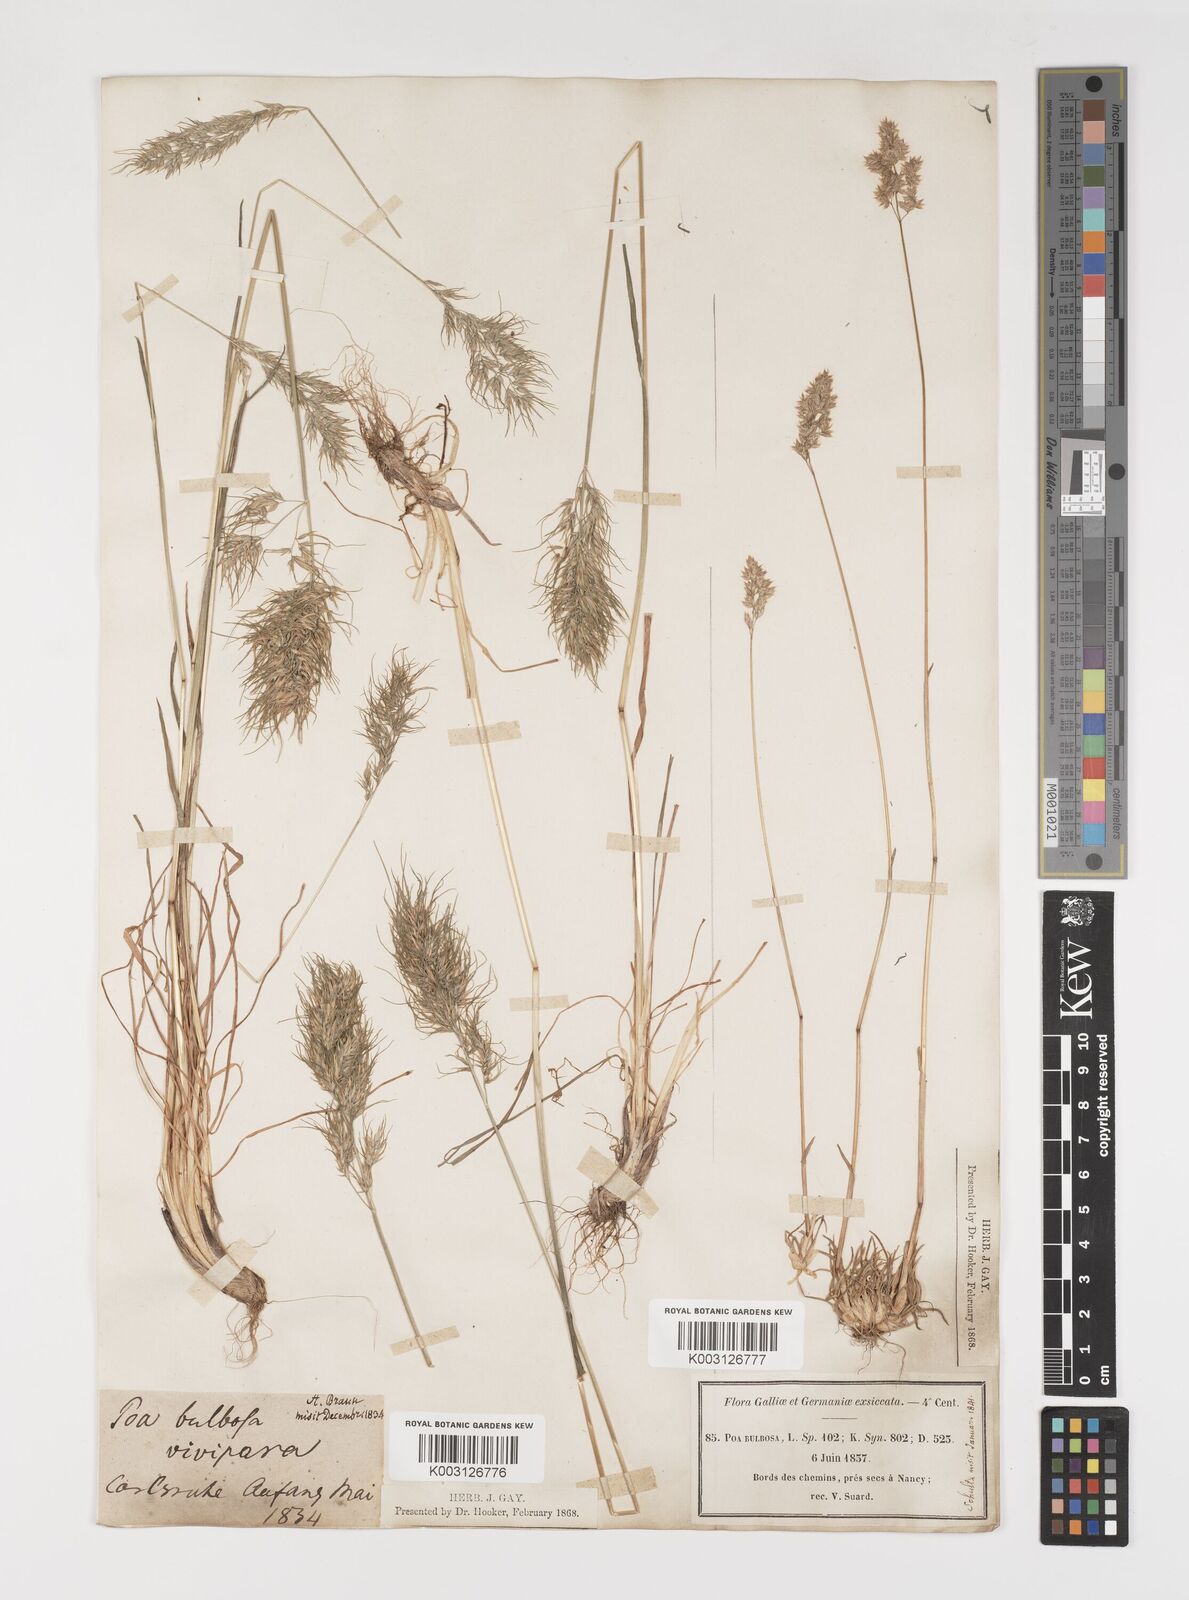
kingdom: Plantae
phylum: Tracheophyta
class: Liliopsida
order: Poales
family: Poaceae
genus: Poa
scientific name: Poa bulbosa
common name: Bulbous bluegrass
